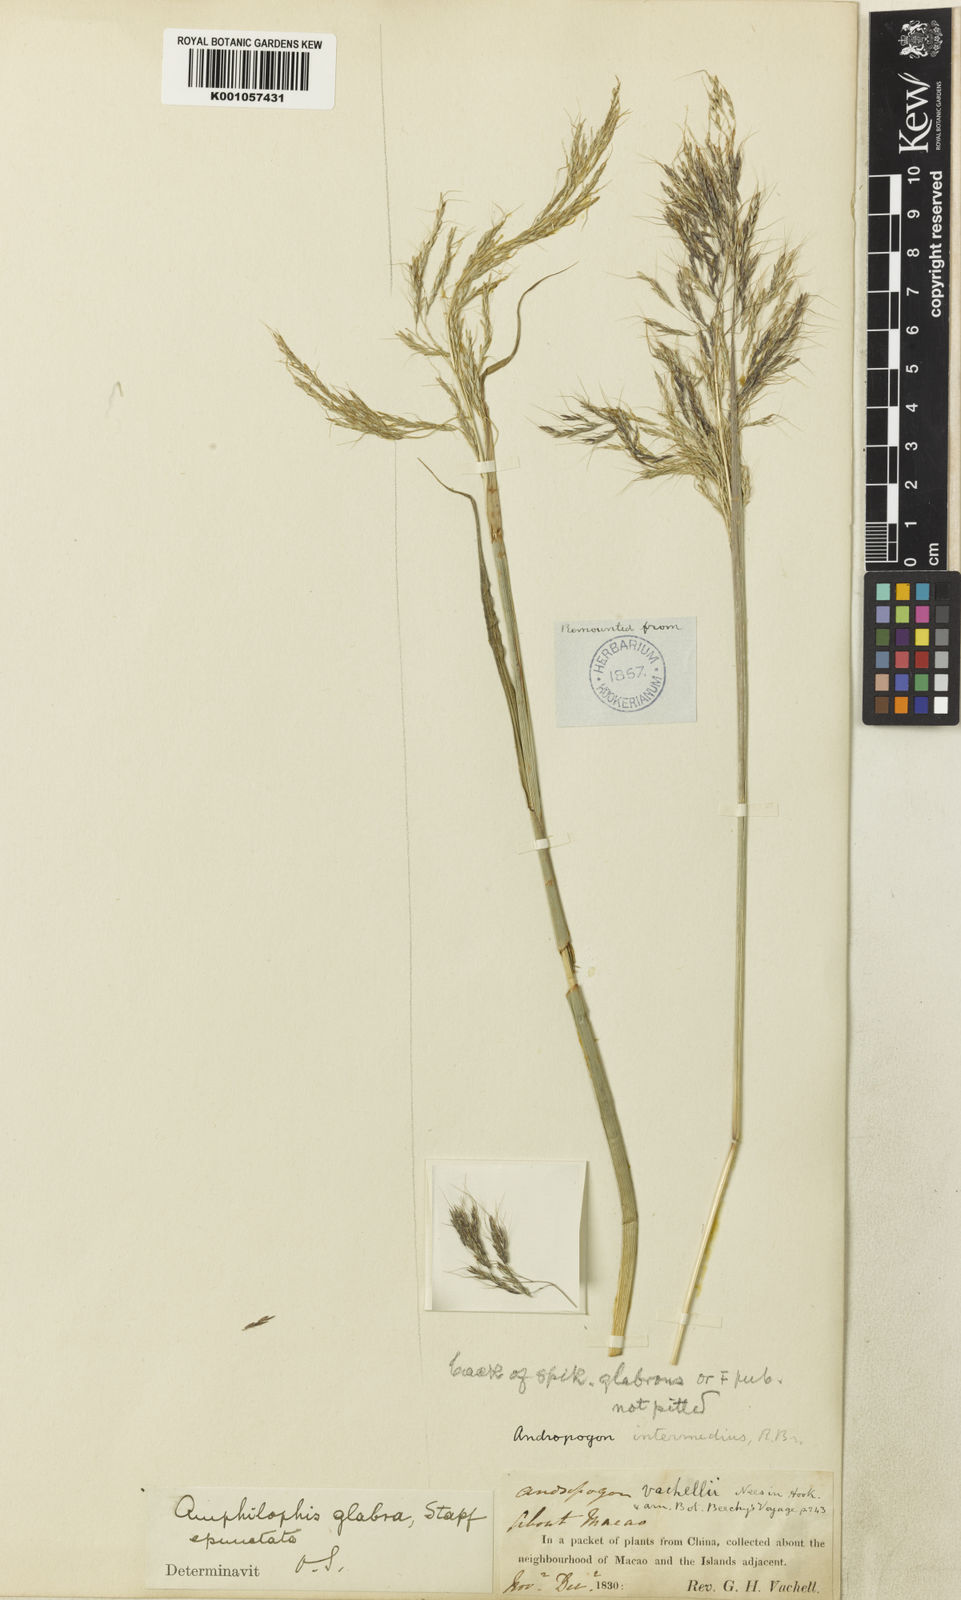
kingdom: Plantae
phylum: Tracheophyta
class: Liliopsida
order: Poales
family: Poaceae
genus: Bothriochloa
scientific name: Bothriochloa bladhii
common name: Caucasian bluestem
